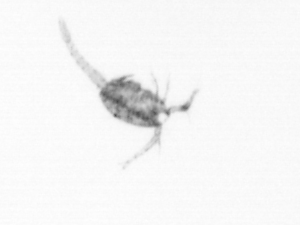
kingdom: Animalia
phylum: Arthropoda
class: Copepoda
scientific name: Copepoda
